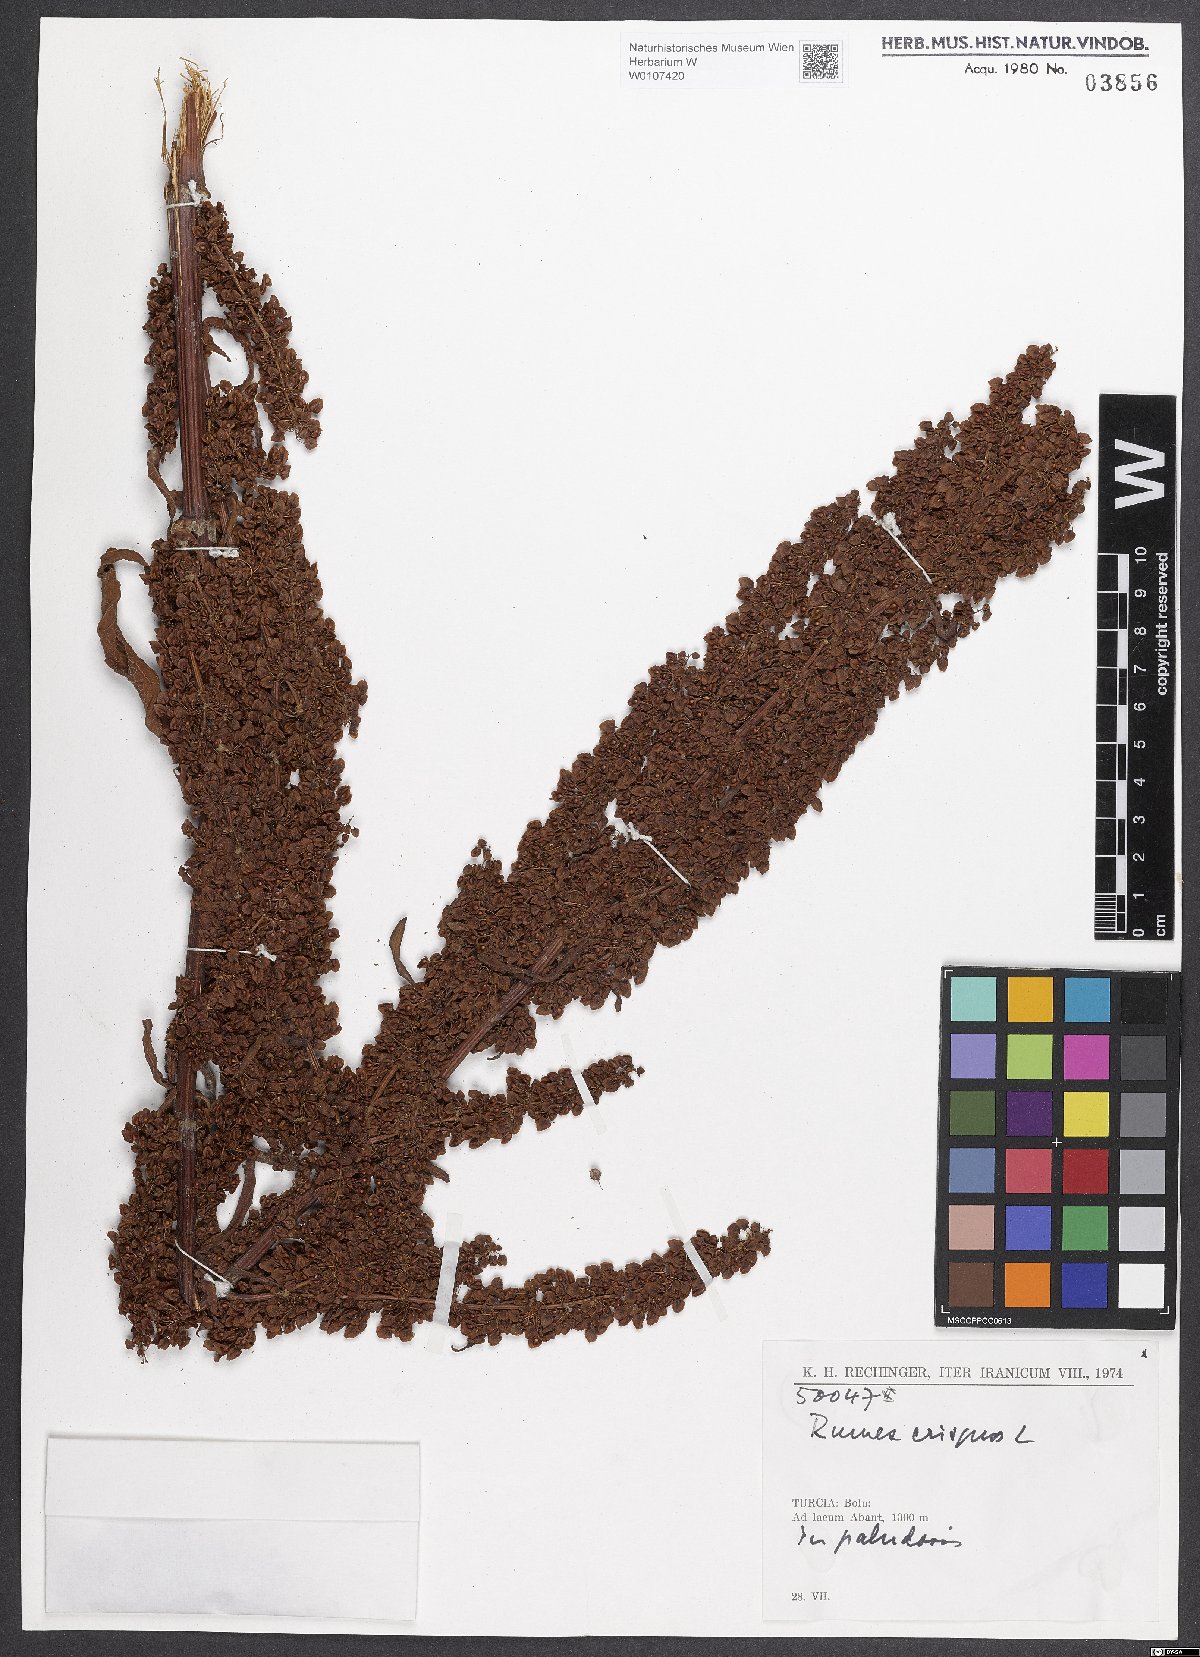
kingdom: Plantae
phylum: Tracheophyta
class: Magnoliopsida
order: Caryophyllales
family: Polygonaceae
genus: Rumex
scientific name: Rumex crispus
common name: Curled dock
